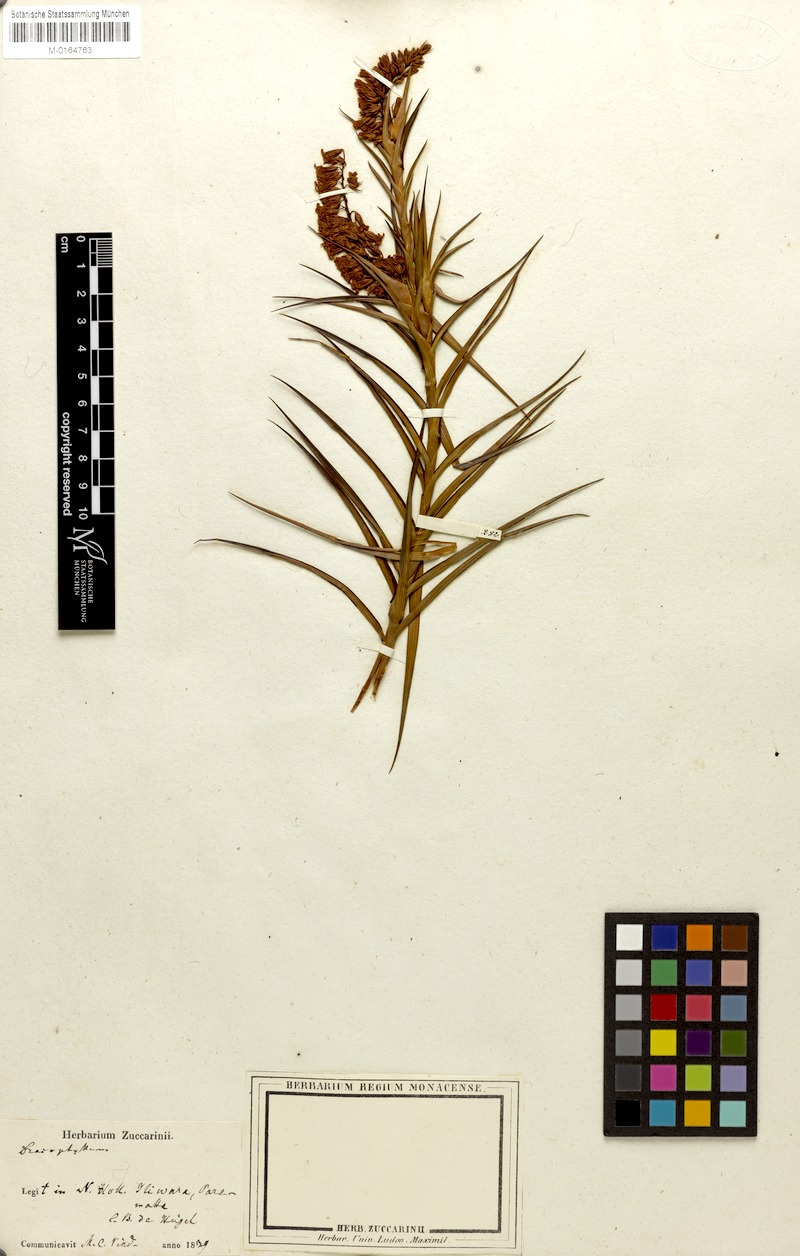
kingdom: Plantae
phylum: Tracheophyta
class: Magnoliopsida
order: Ericales
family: Ericaceae
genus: Dracophyllum
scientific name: Dracophyllum
